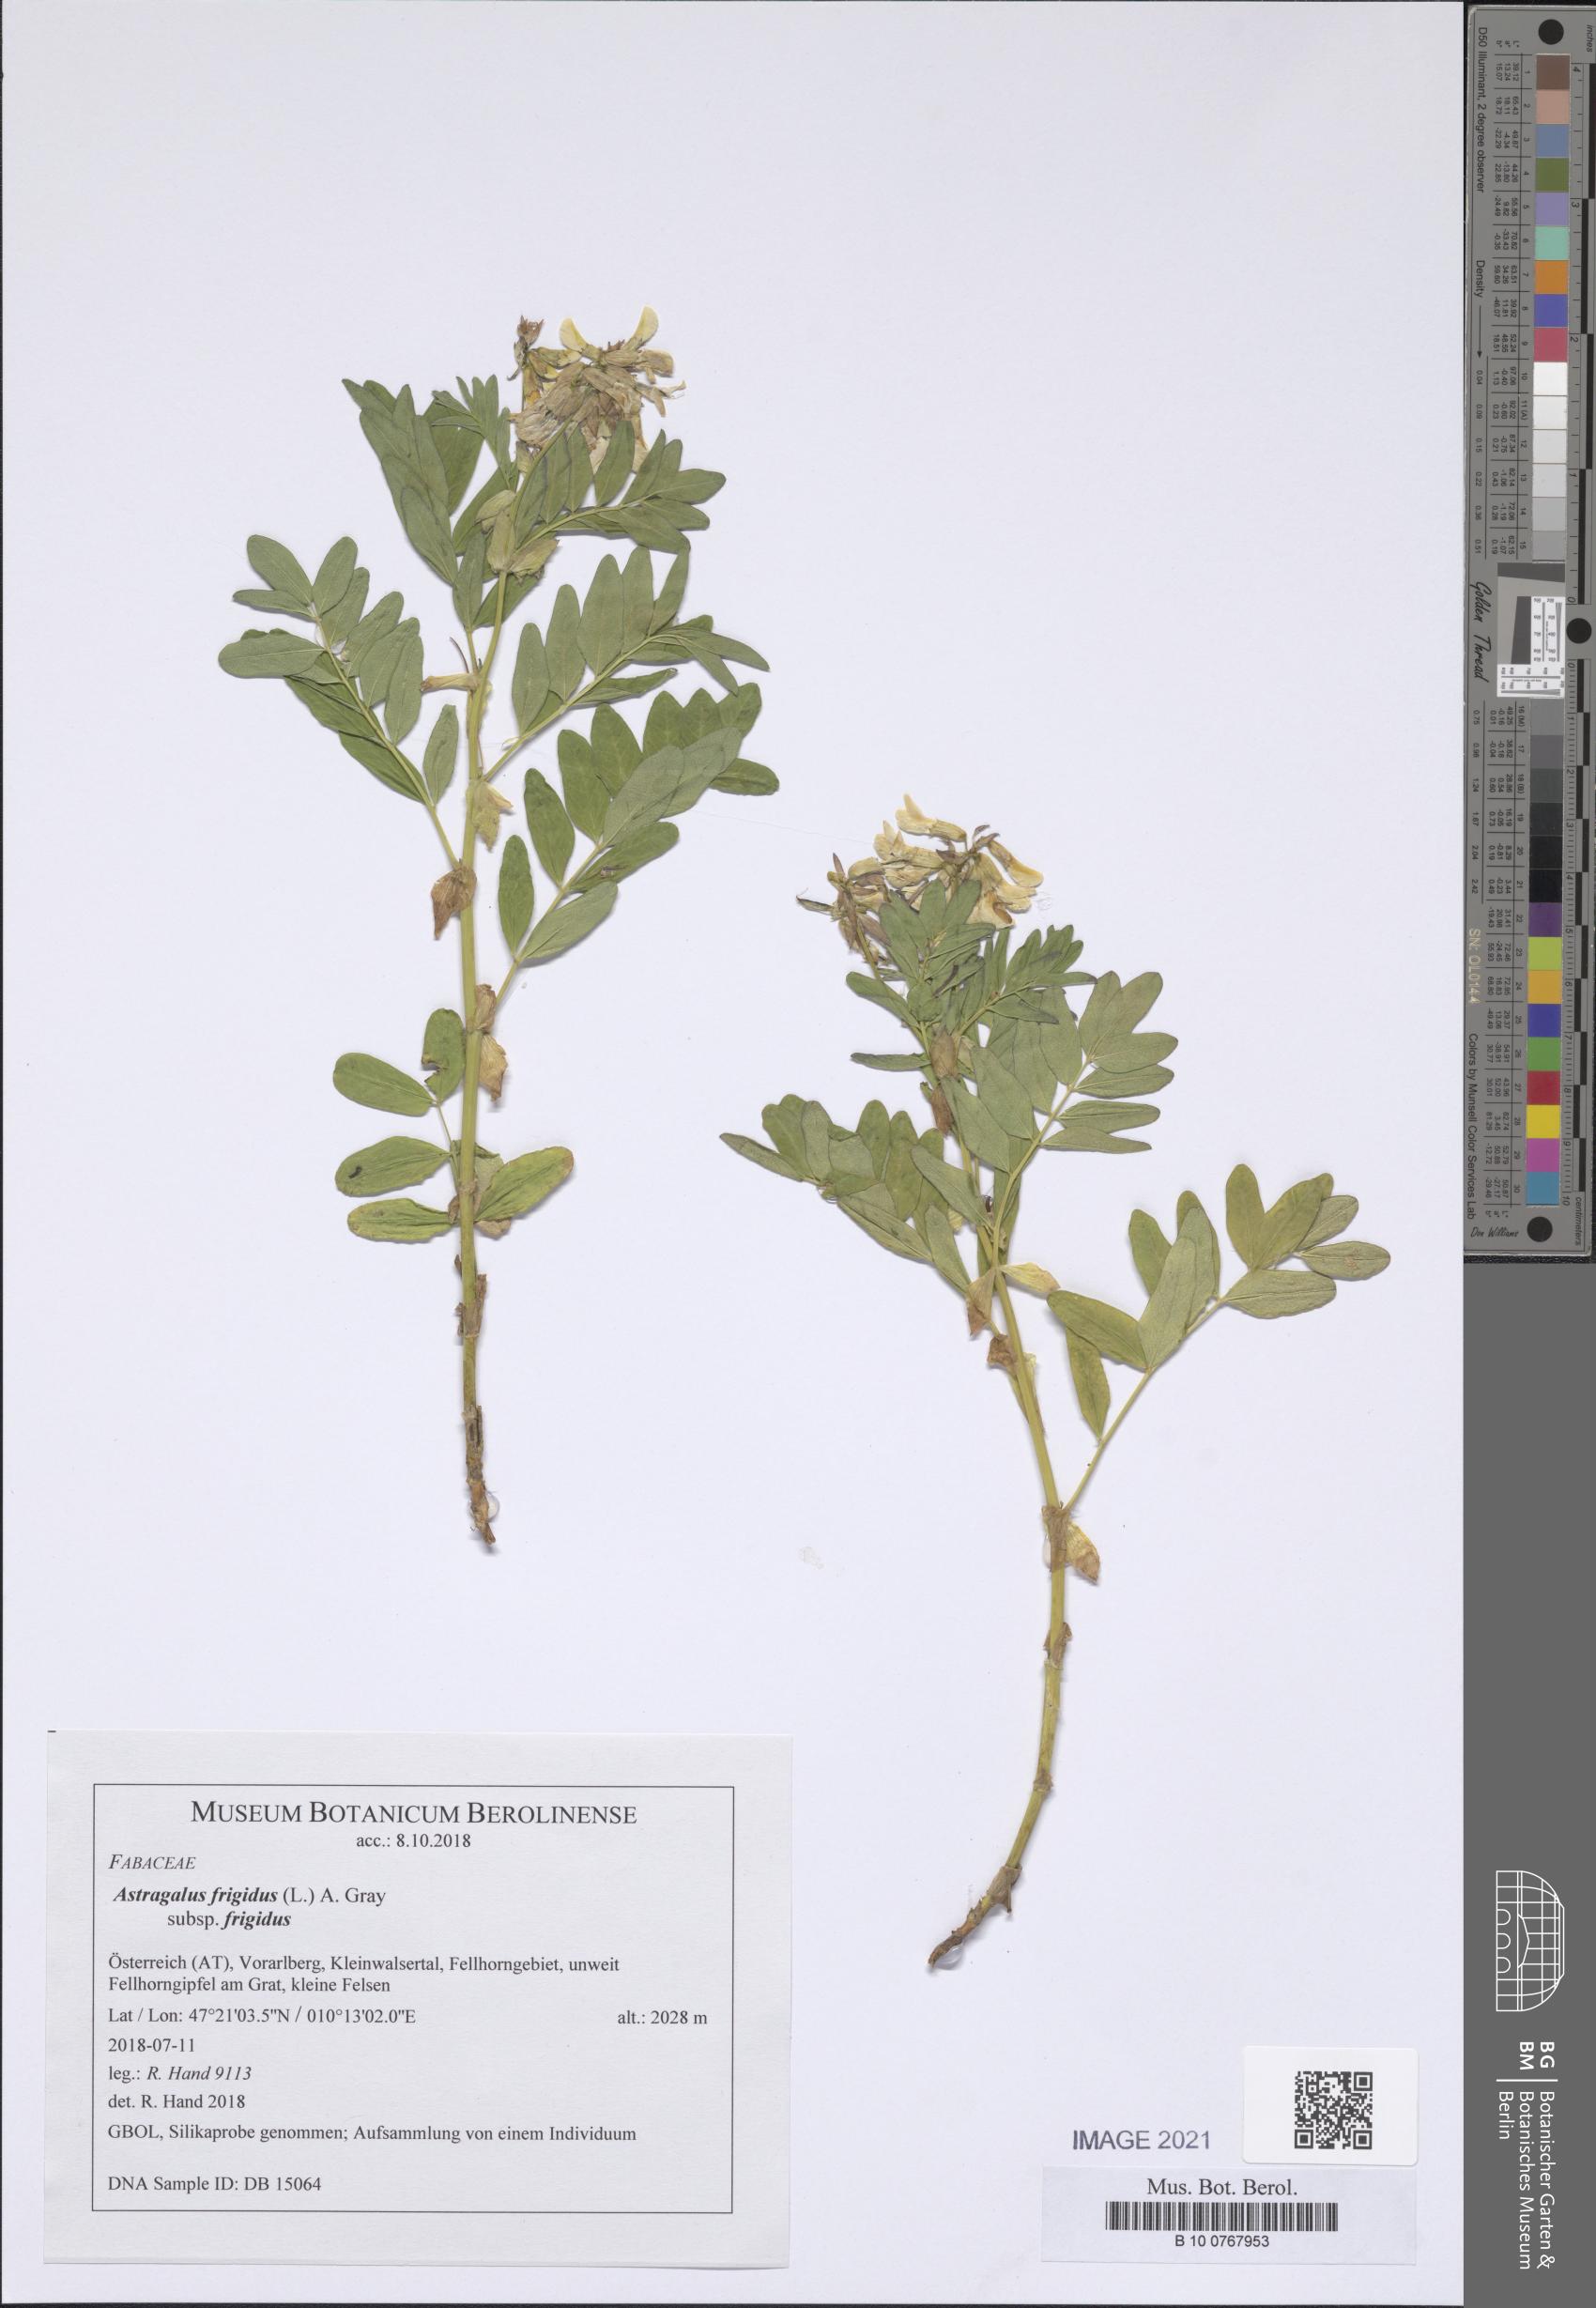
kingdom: Plantae
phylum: Tracheophyta
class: Magnoliopsida
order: Fabales
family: Fabaceae
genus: Astragalus
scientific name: Astragalus frigidus
